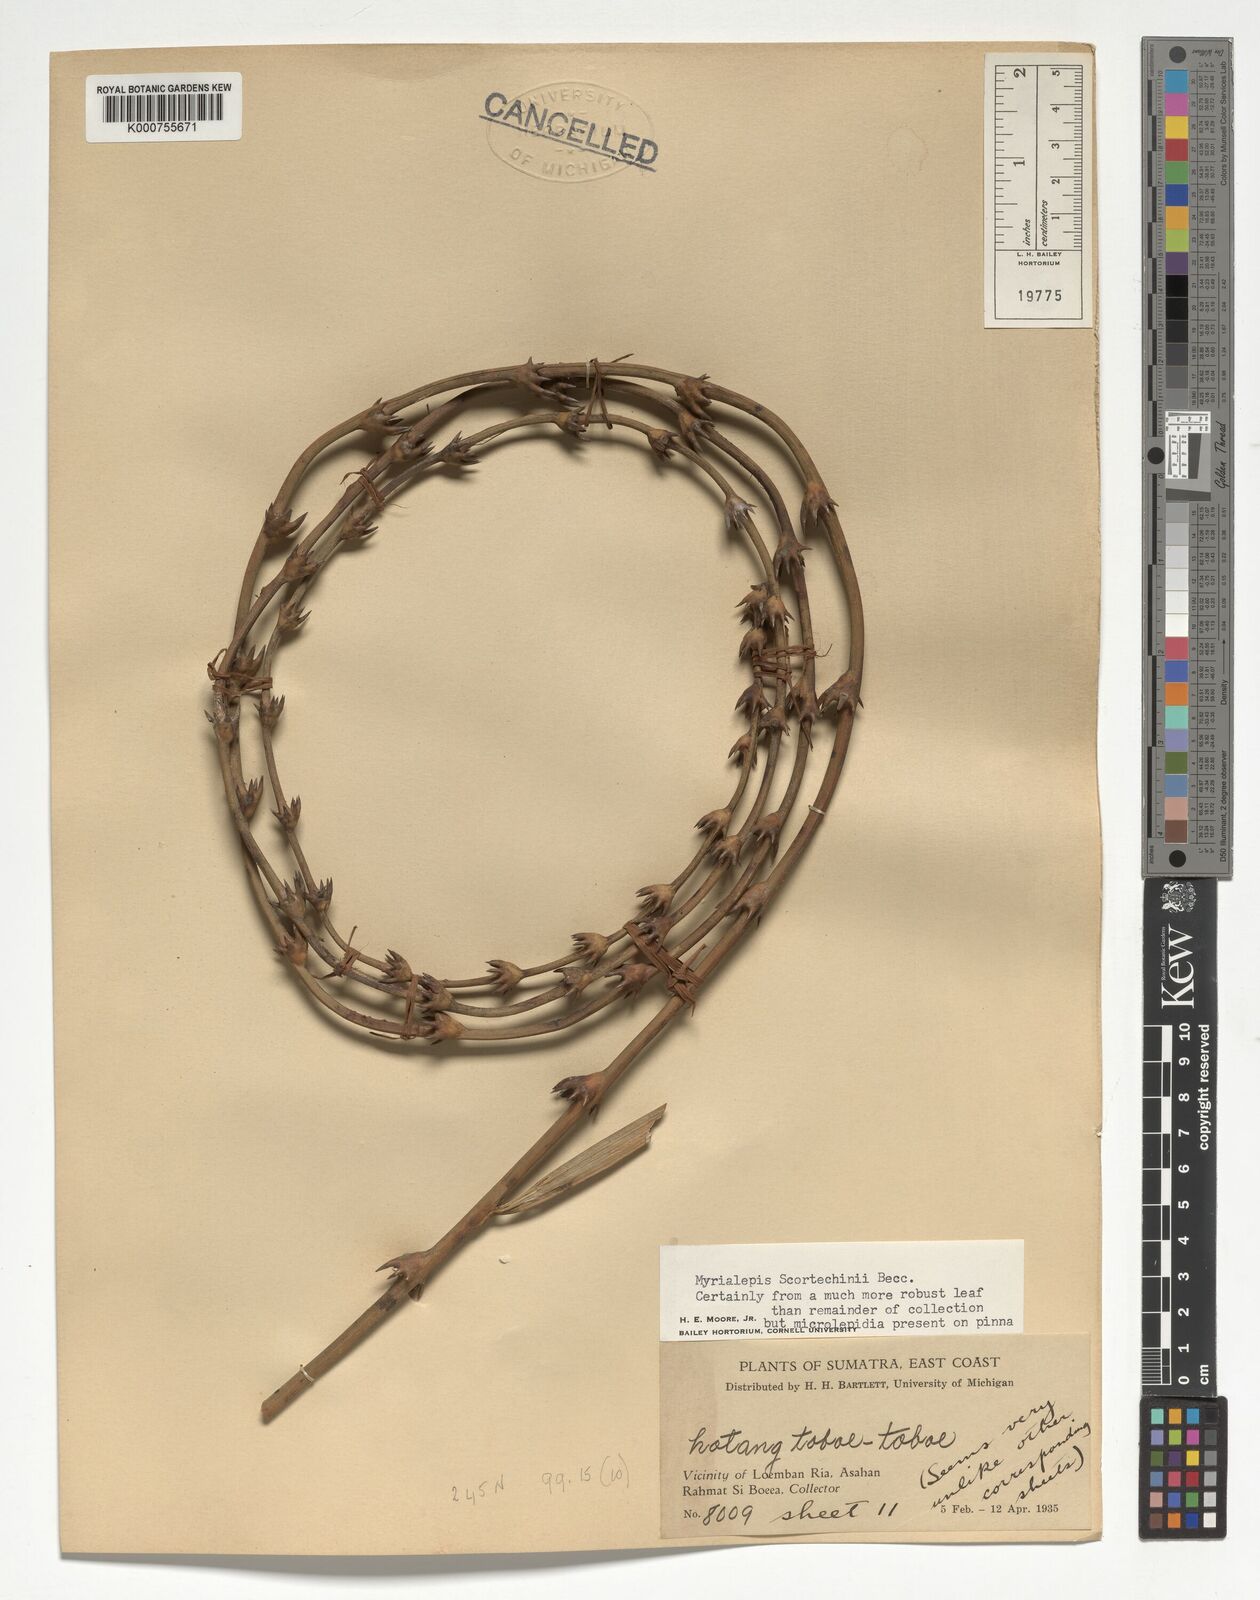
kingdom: Plantae
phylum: Tracheophyta
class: Liliopsida
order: Arecales
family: Arecaceae
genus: Myrialepis
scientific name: Myrialepis paradoxa
